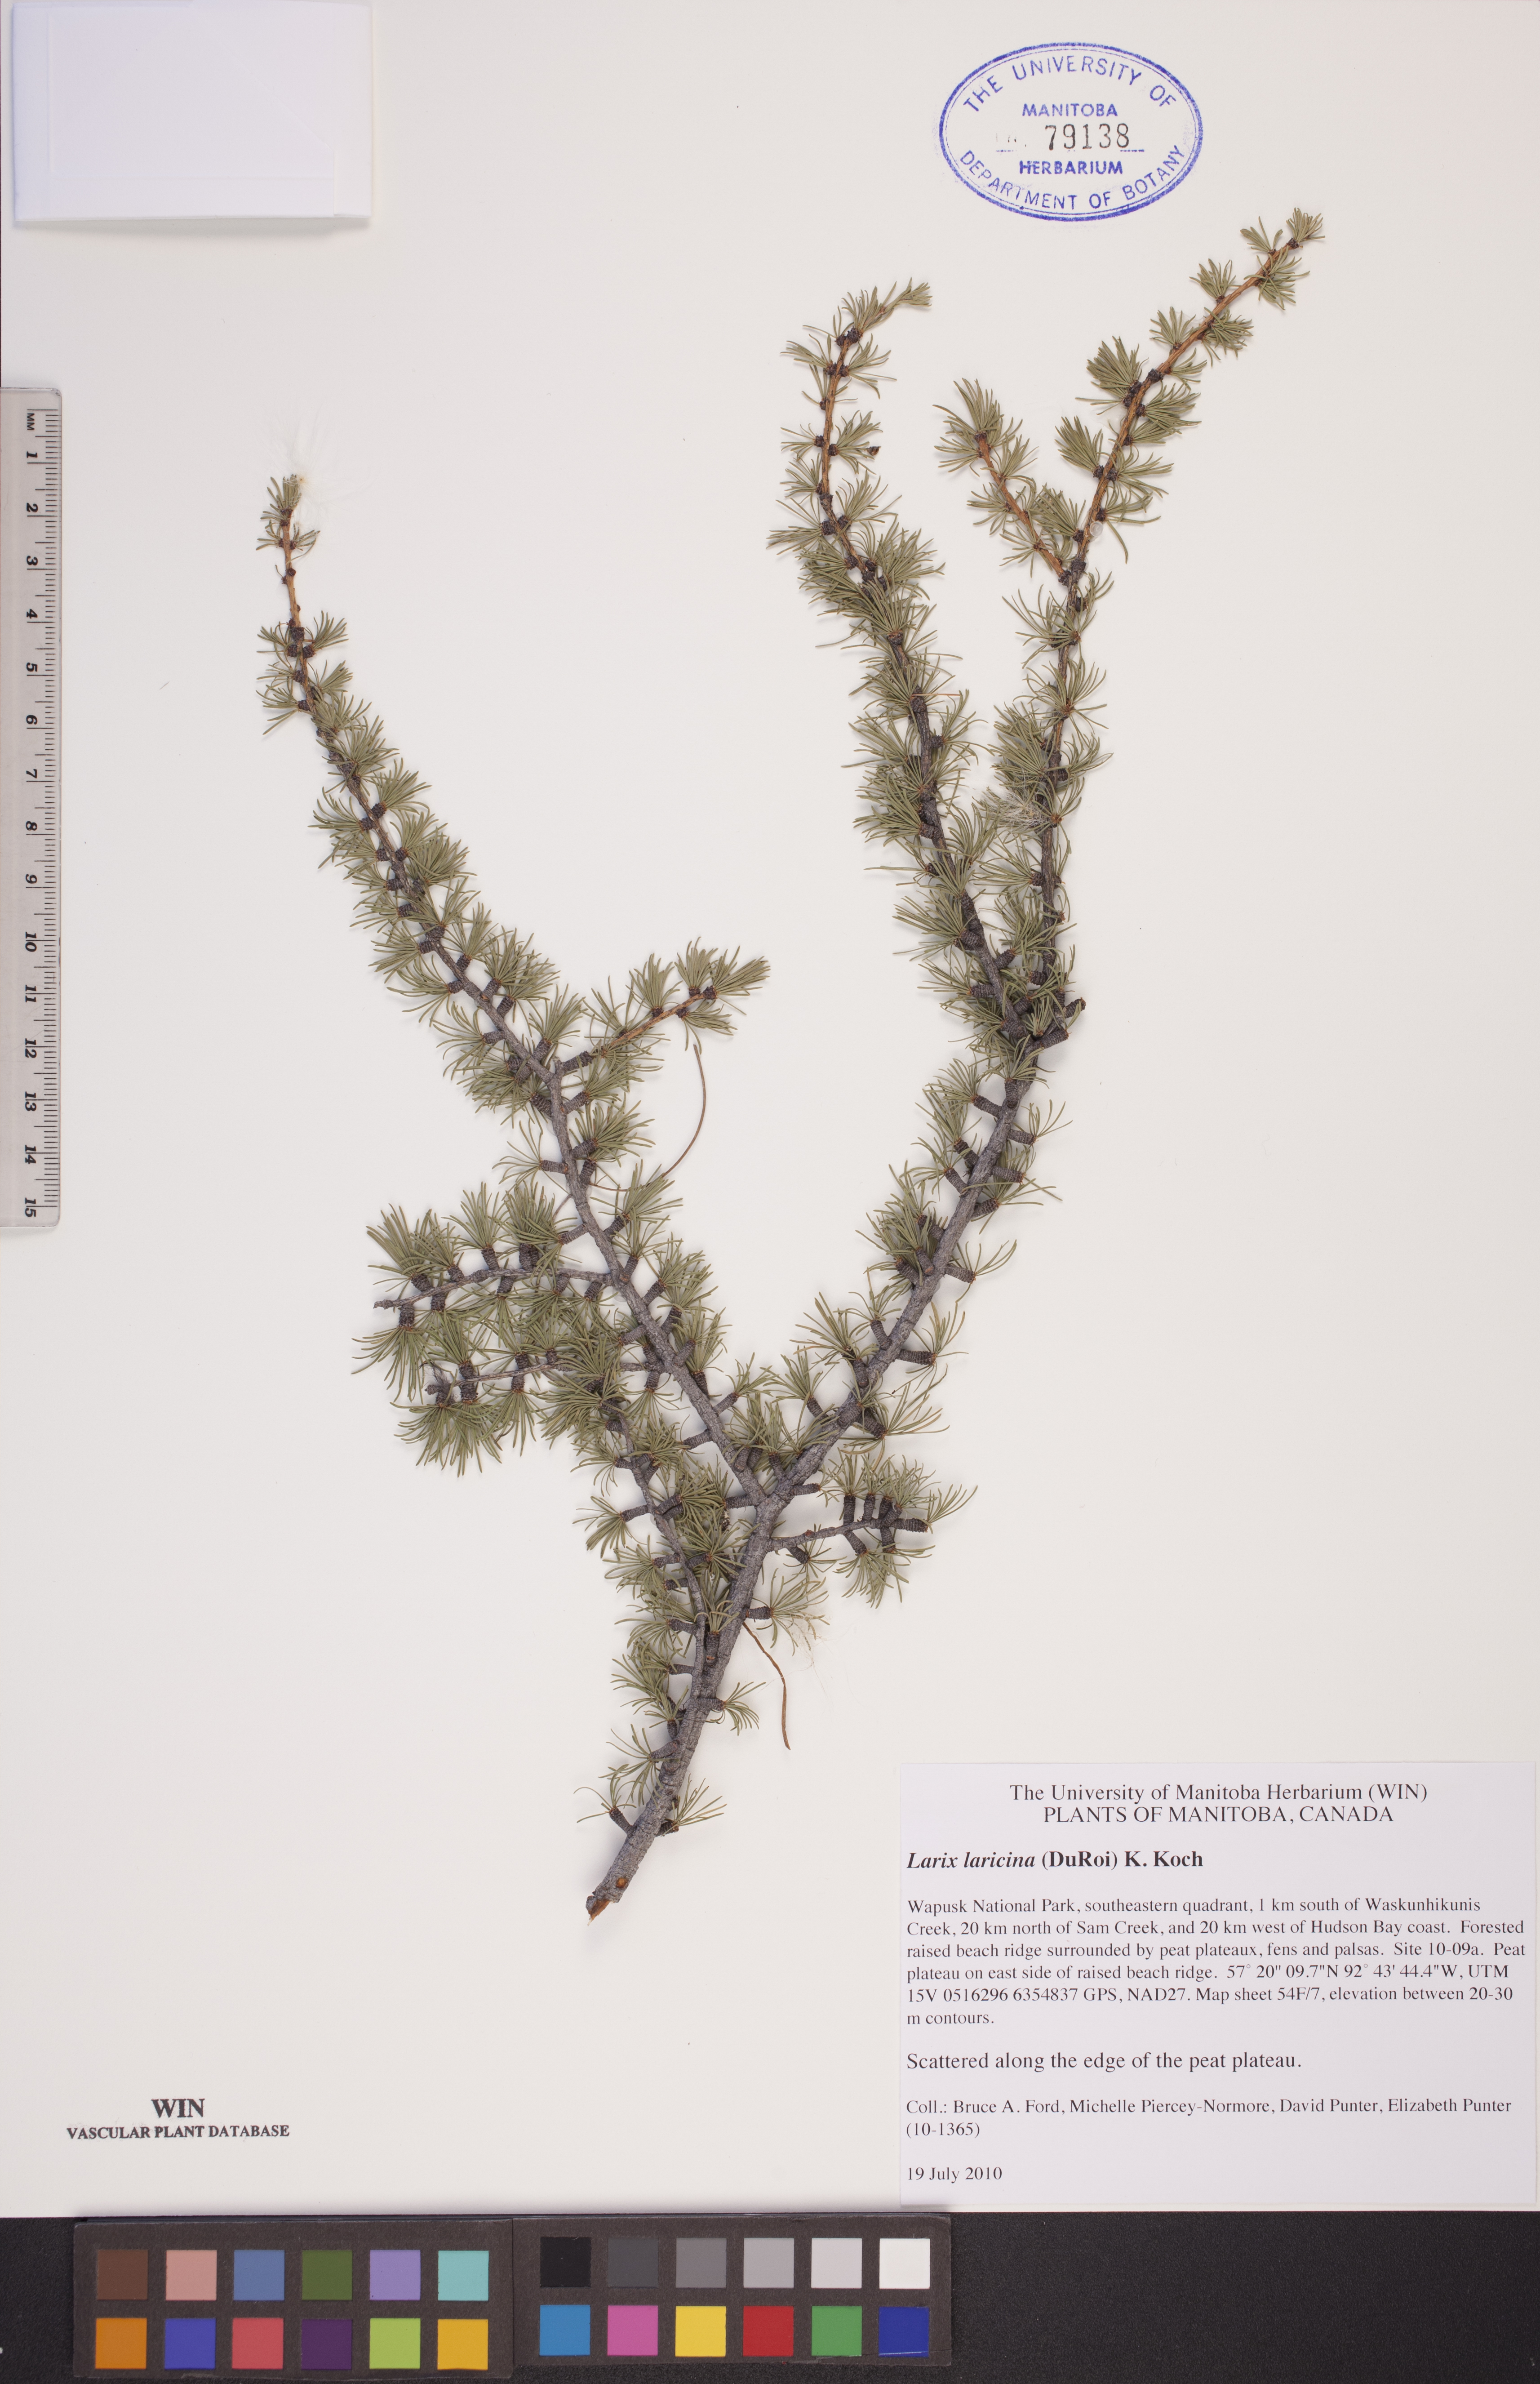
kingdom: Plantae
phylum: Tracheophyta
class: Pinopsida
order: Pinales
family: Pinaceae
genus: Larix
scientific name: Larix laricina
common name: American larch
